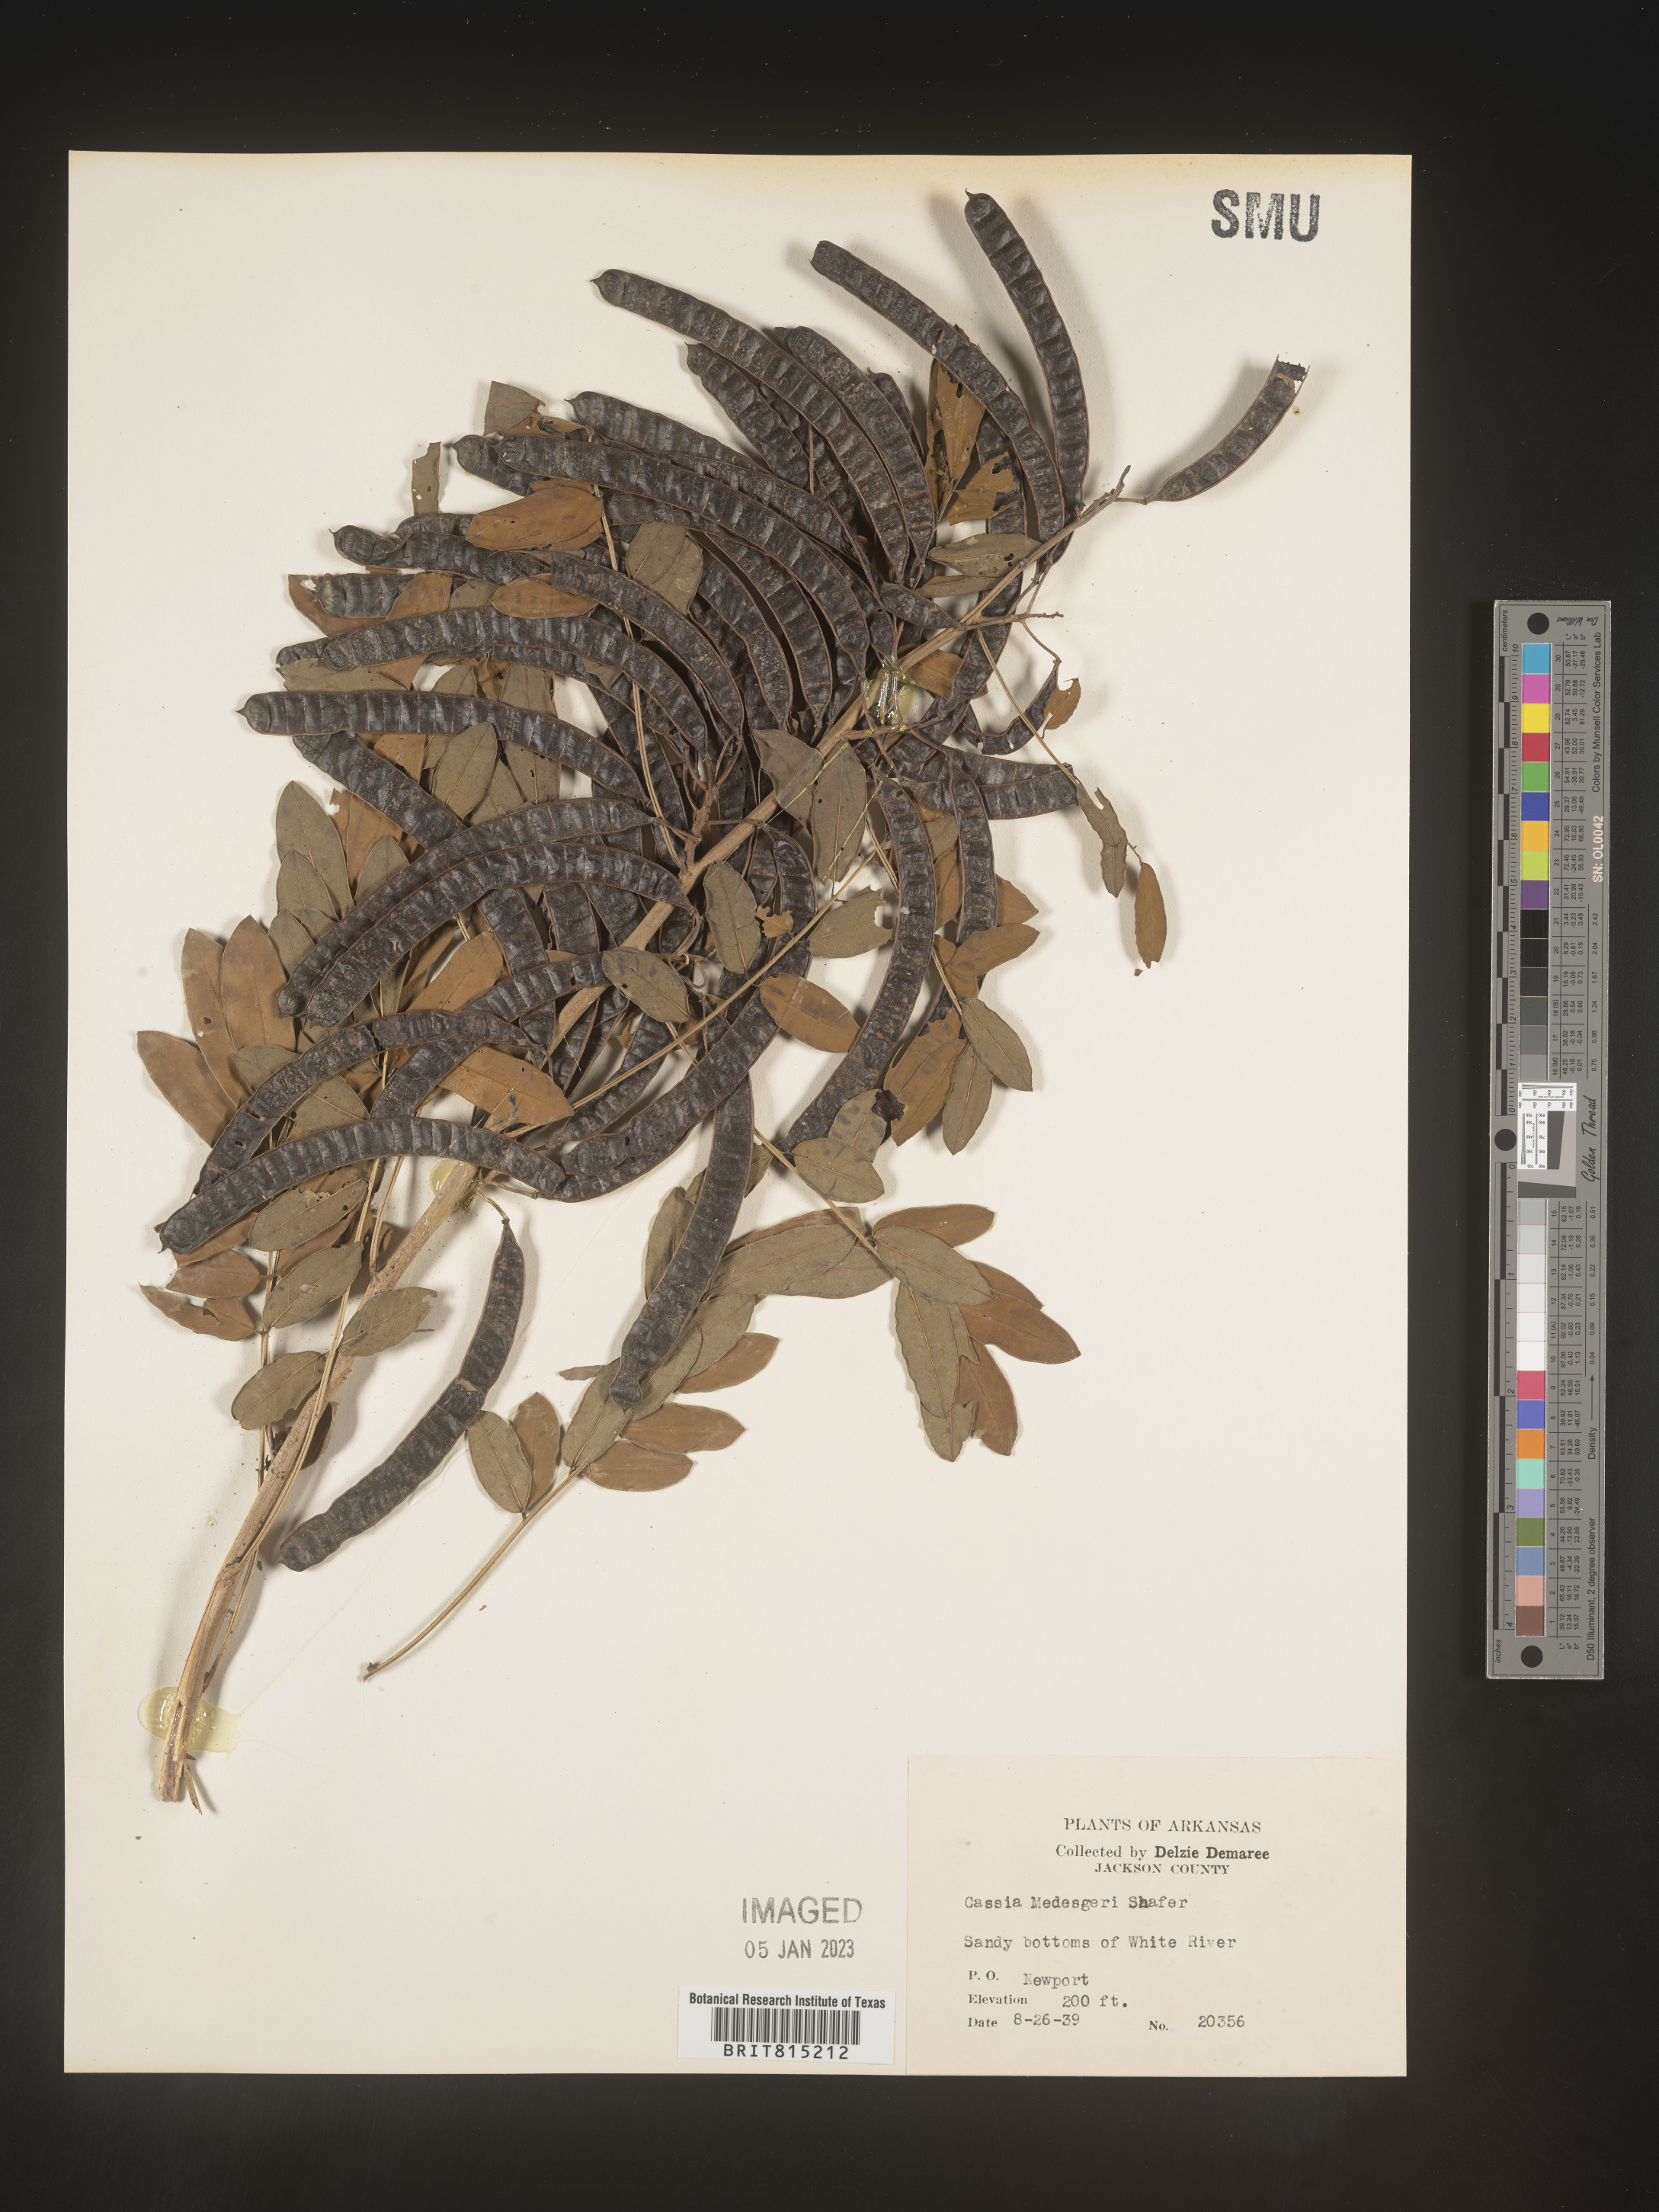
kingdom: Plantae
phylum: Tracheophyta
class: Magnoliopsida
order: Fabales
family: Fabaceae
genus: Senna
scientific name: Senna marilandica
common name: American senna
